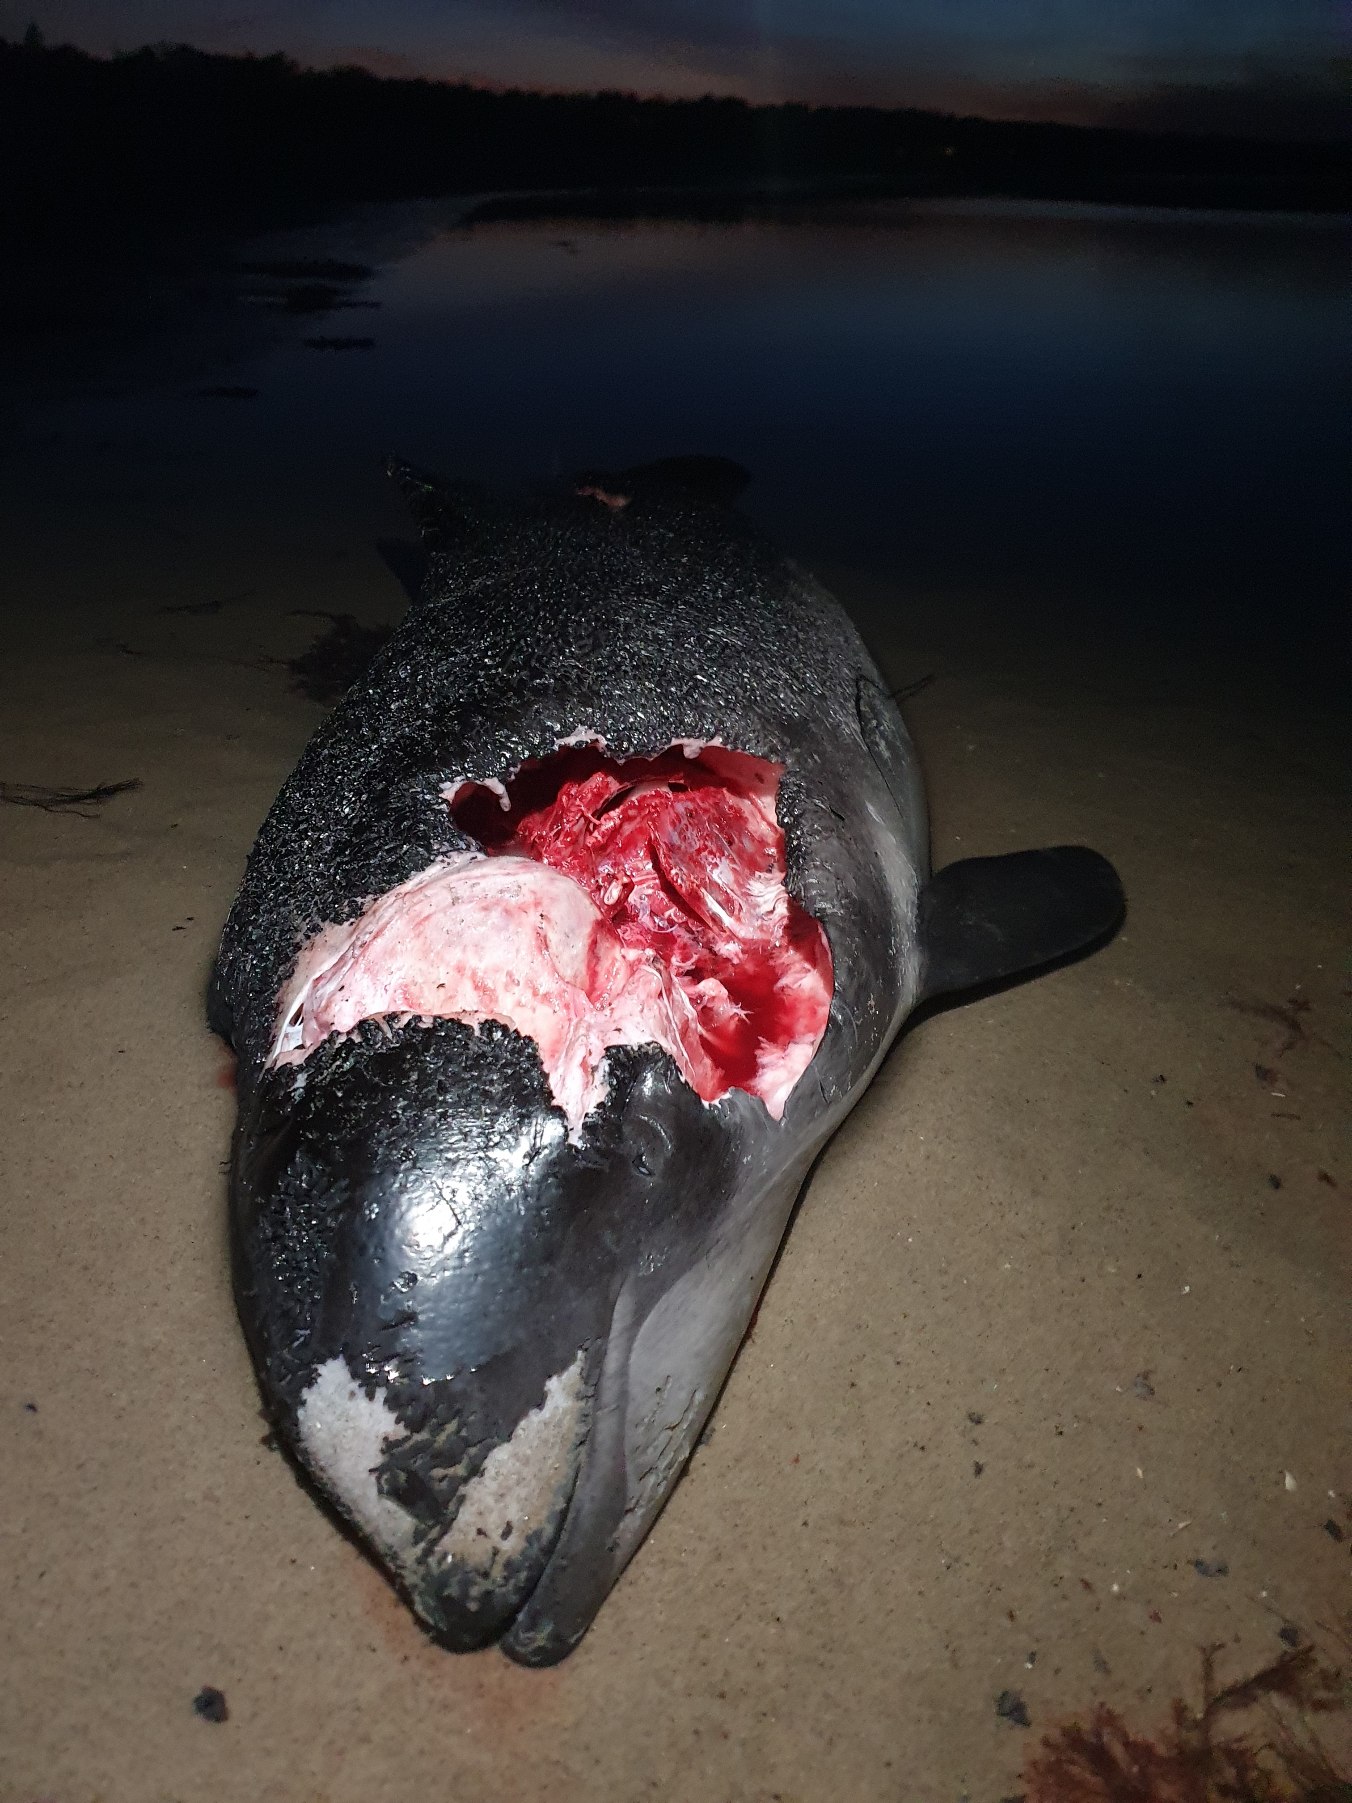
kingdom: Animalia
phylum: Chordata
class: Mammalia
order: Cetacea
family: Phocoenidae
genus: Phocoena
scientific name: Phocoena phocoena
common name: Marsvin
